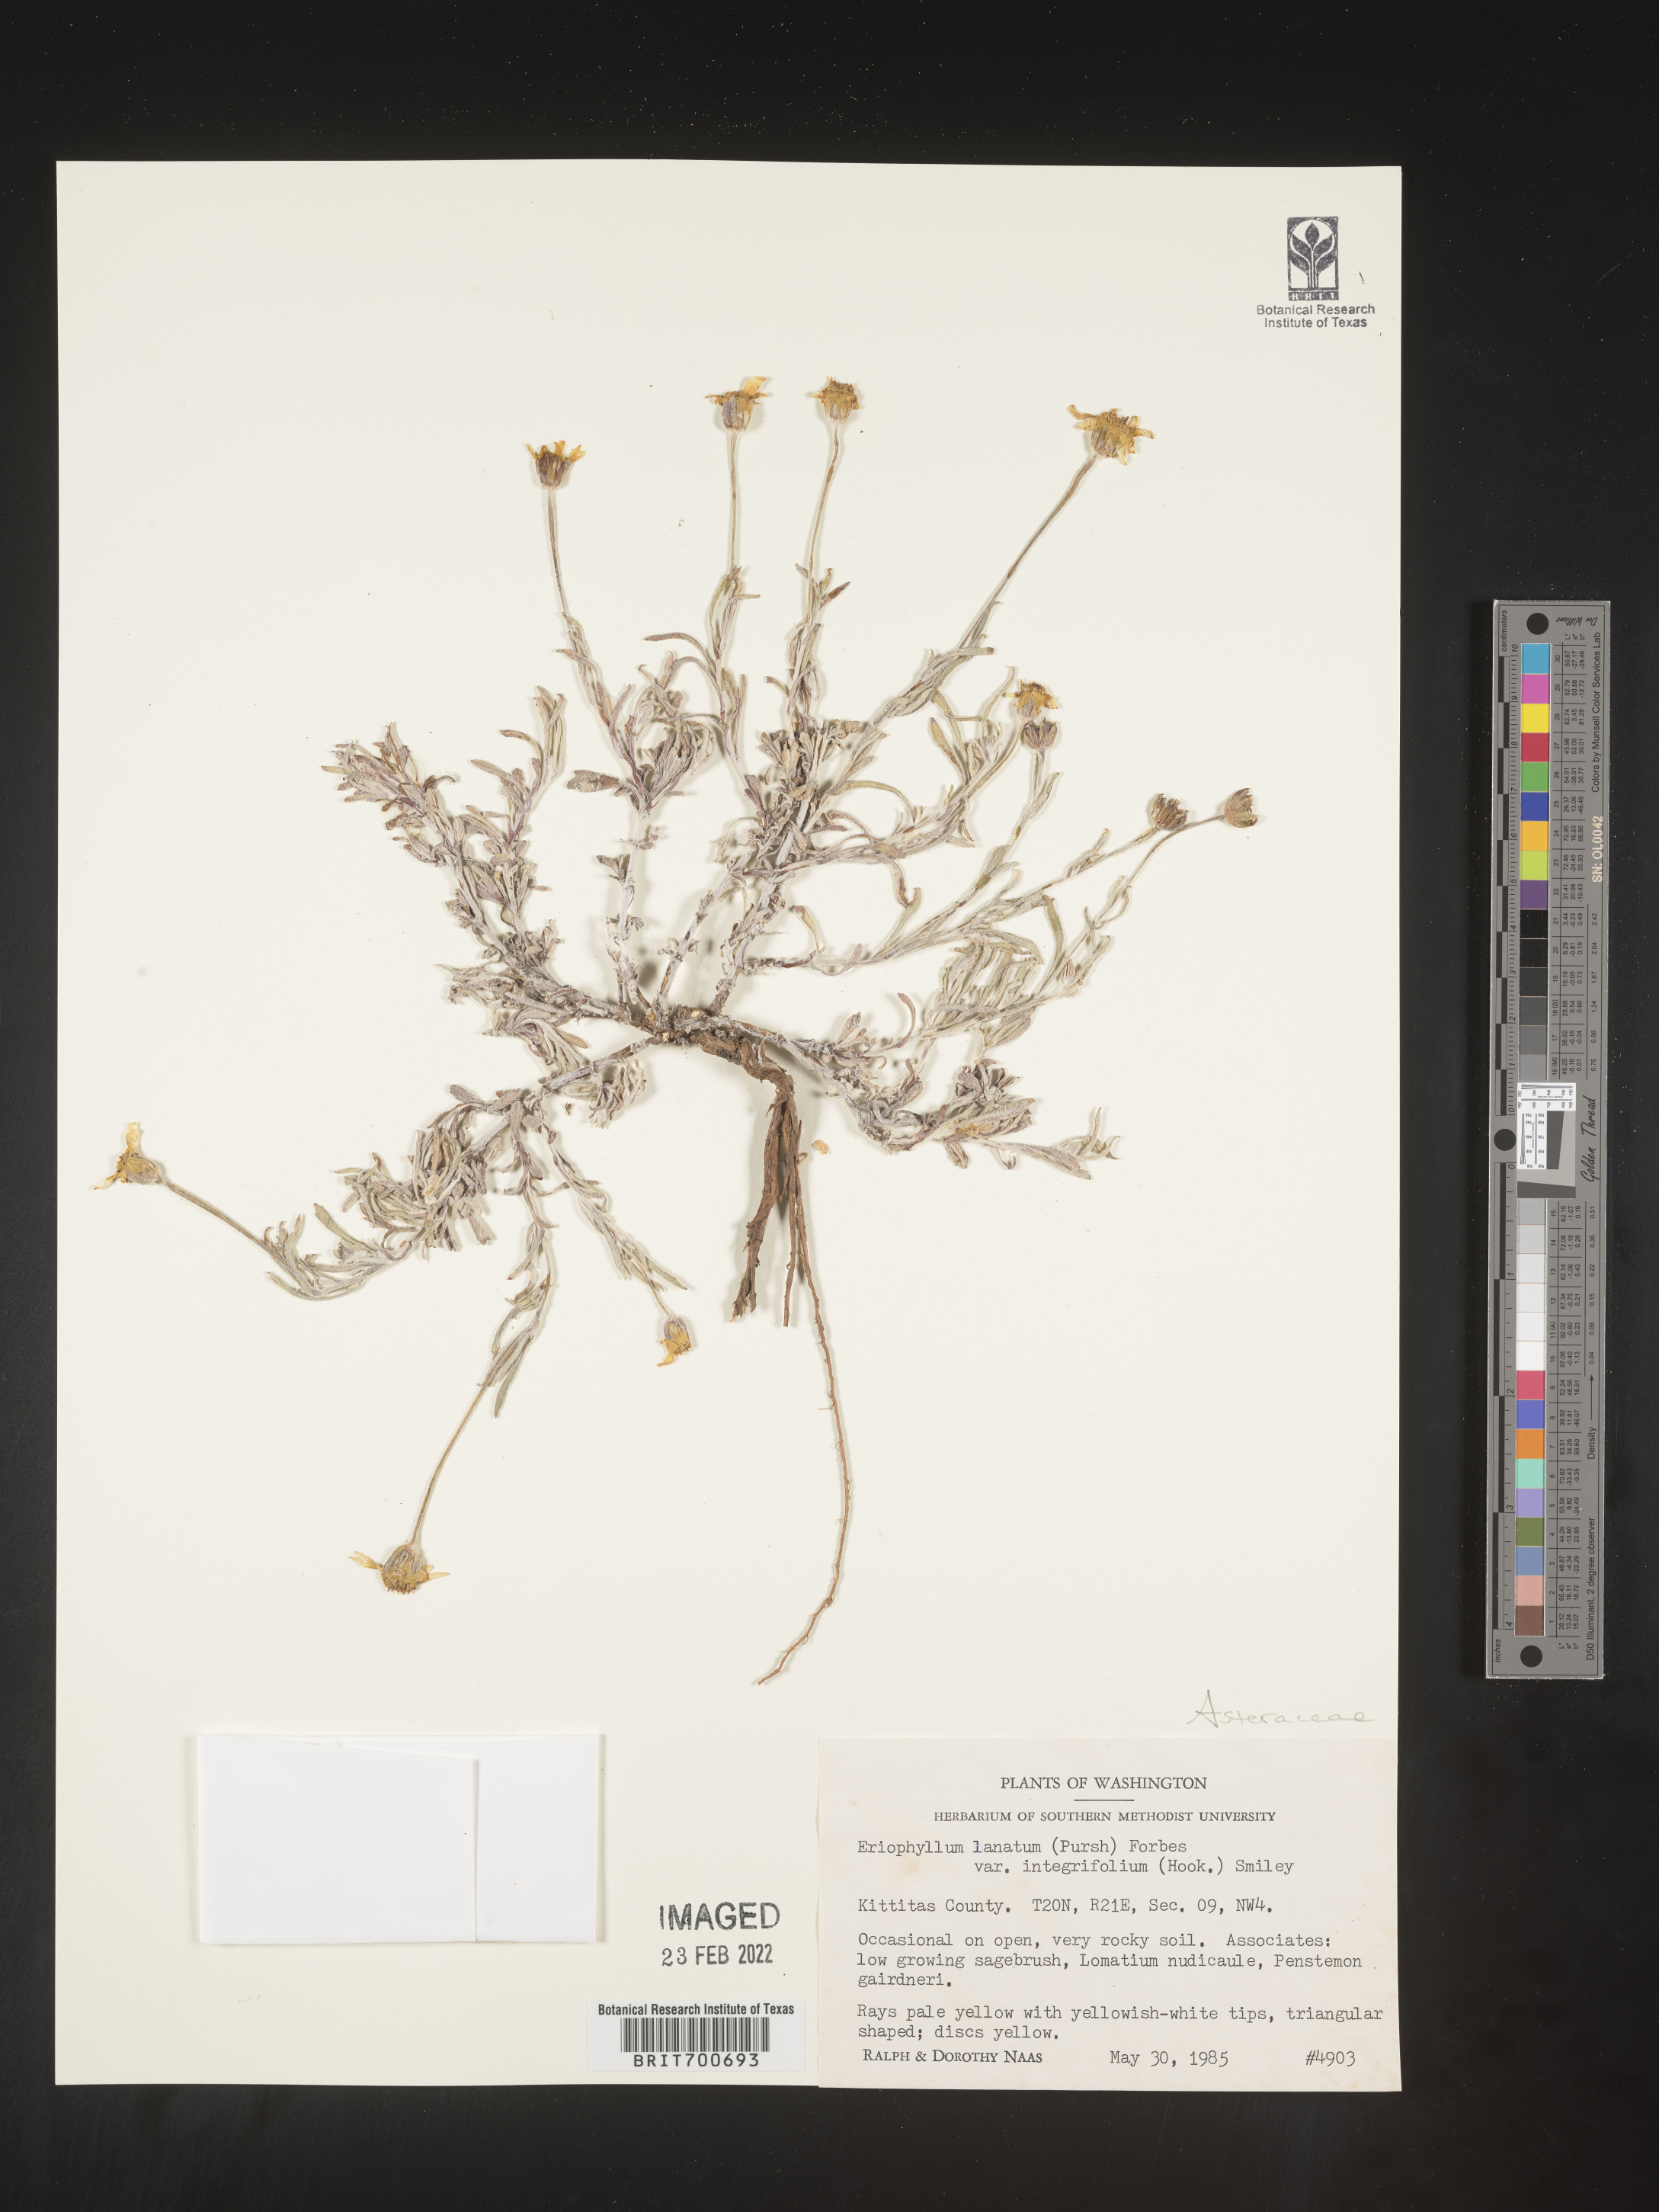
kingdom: Plantae
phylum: Tracheophyta
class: Magnoliopsida
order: Asterales
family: Asteraceae
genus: Eriophyllum
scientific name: Eriophyllum lanatum
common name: Common woolly-sunflower
